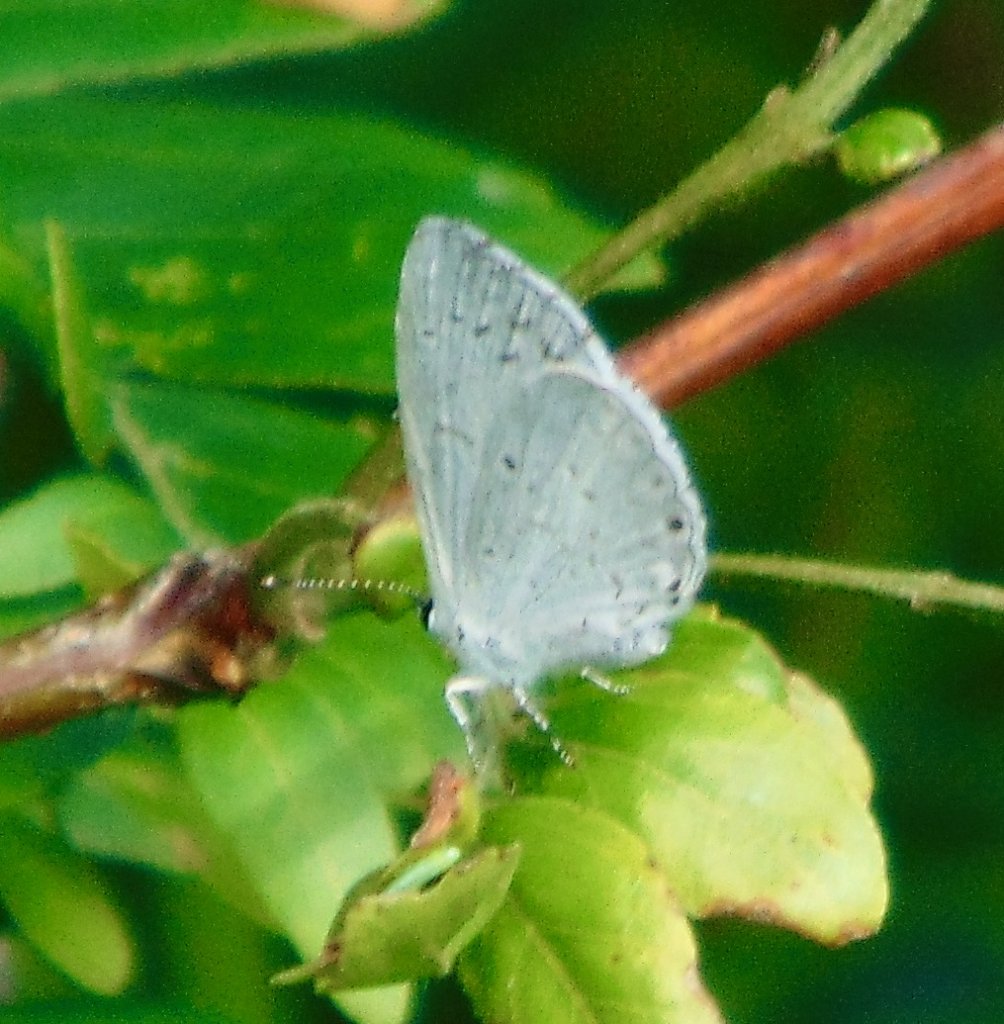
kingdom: Animalia
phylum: Arthropoda
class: Insecta
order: Lepidoptera
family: Lycaenidae
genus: Cyaniris
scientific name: Cyaniris neglecta
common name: Summer Azure
